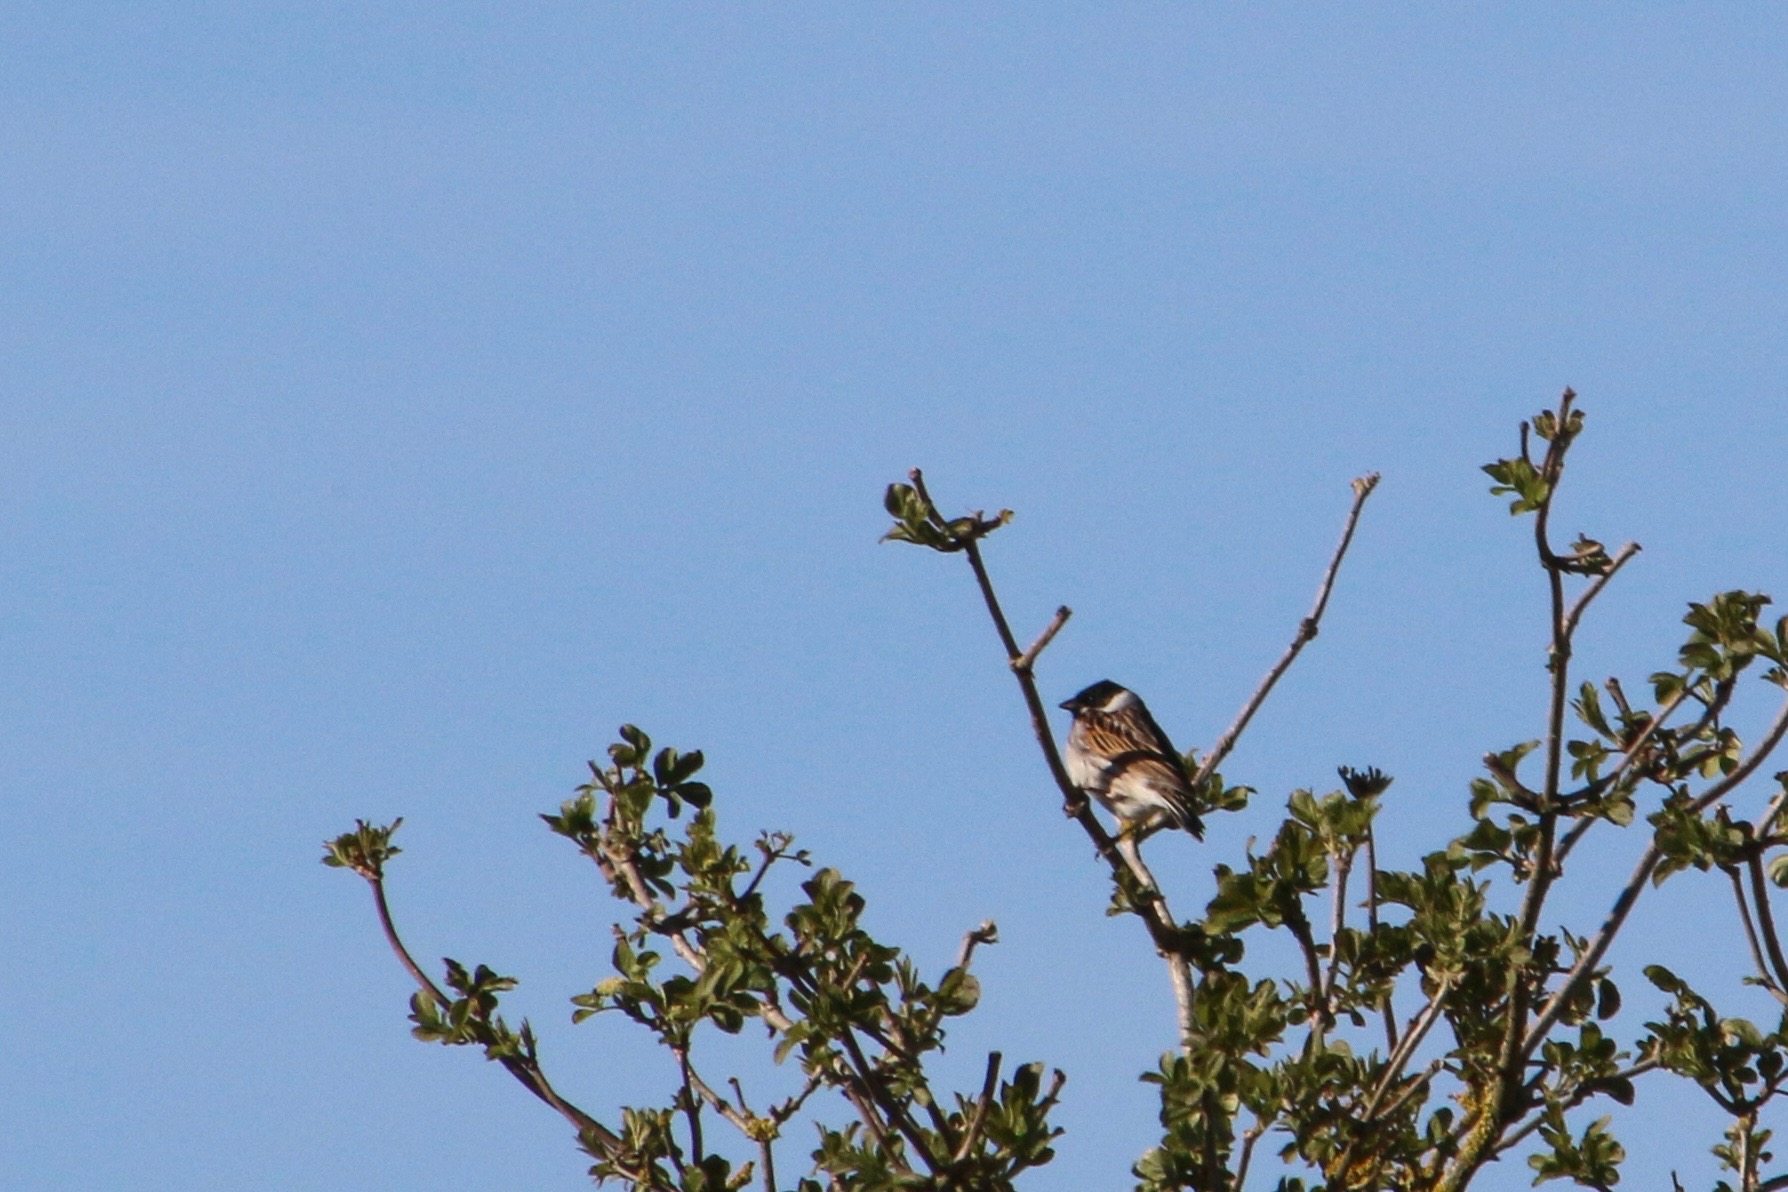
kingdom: Animalia
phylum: Chordata
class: Aves
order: Passeriformes
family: Emberizidae
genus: Emberiza
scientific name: Emberiza schoeniclus
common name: Rørspurv
